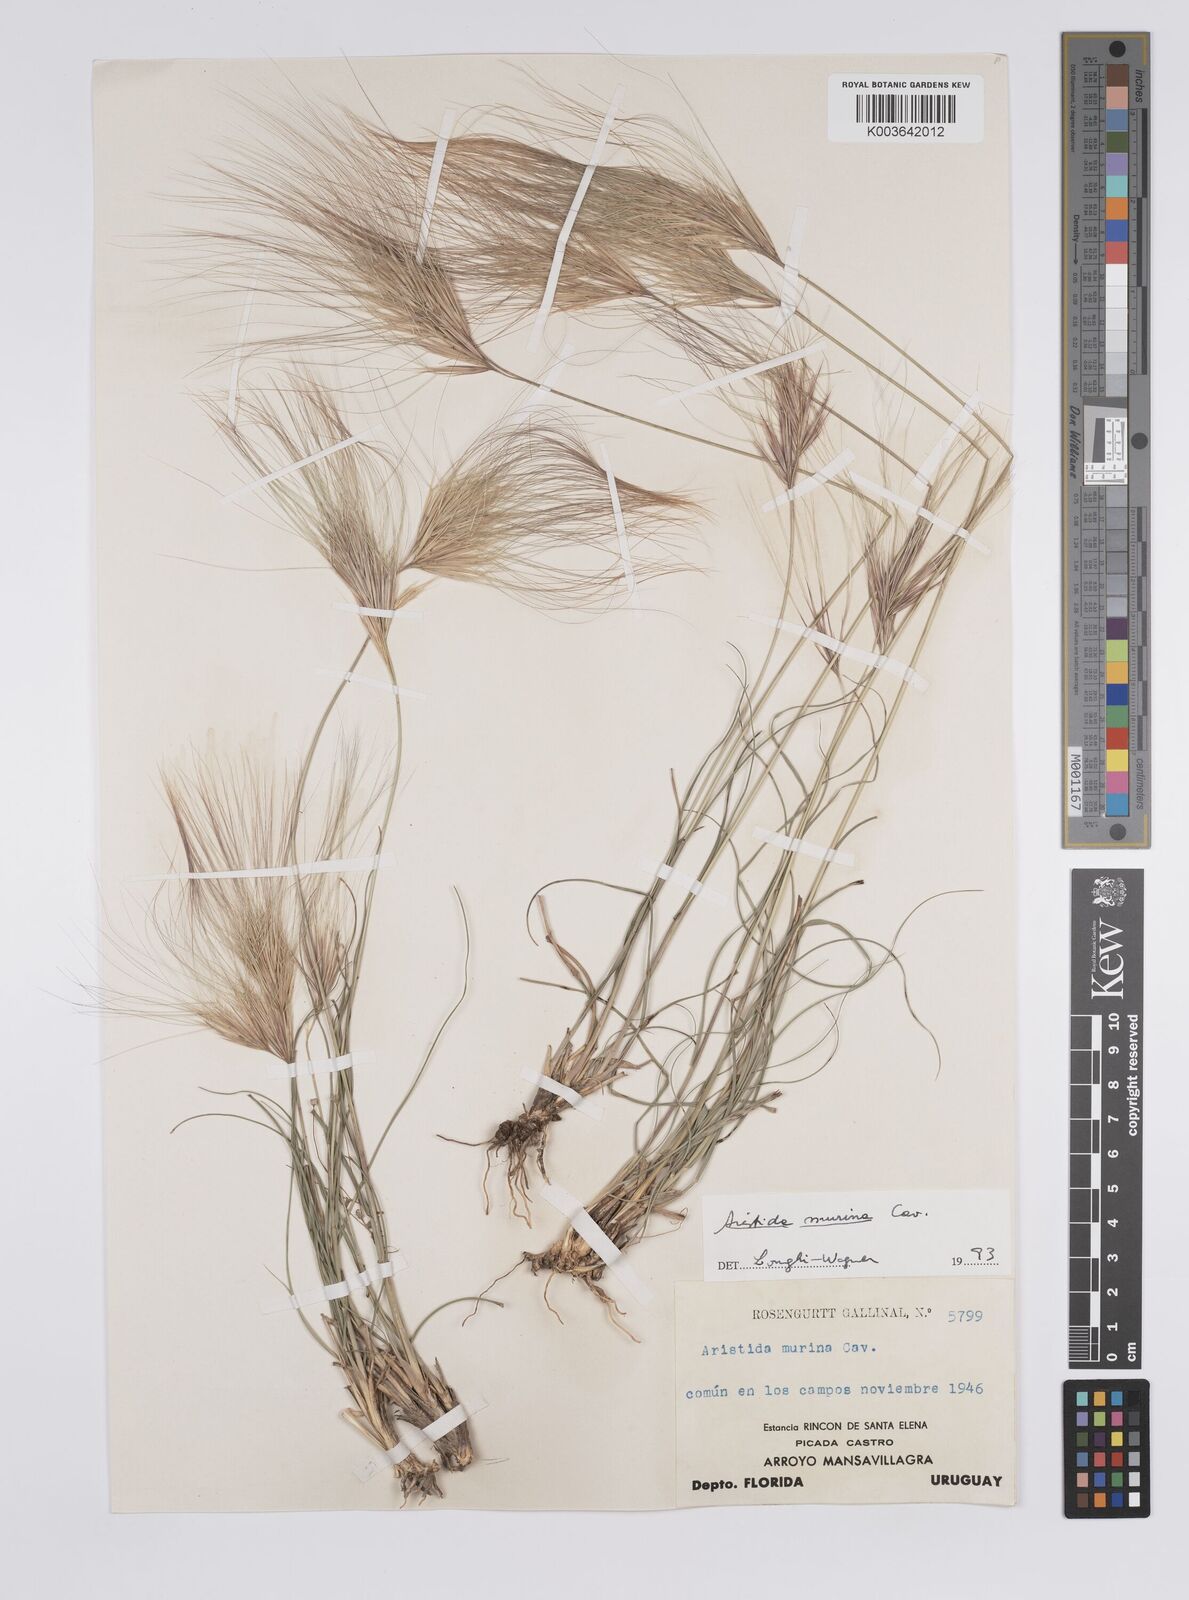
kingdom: Plantae
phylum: Tracheophyta
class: Liliopsida
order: Poales
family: Poaceae
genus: Aristida
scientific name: Aristida murina
